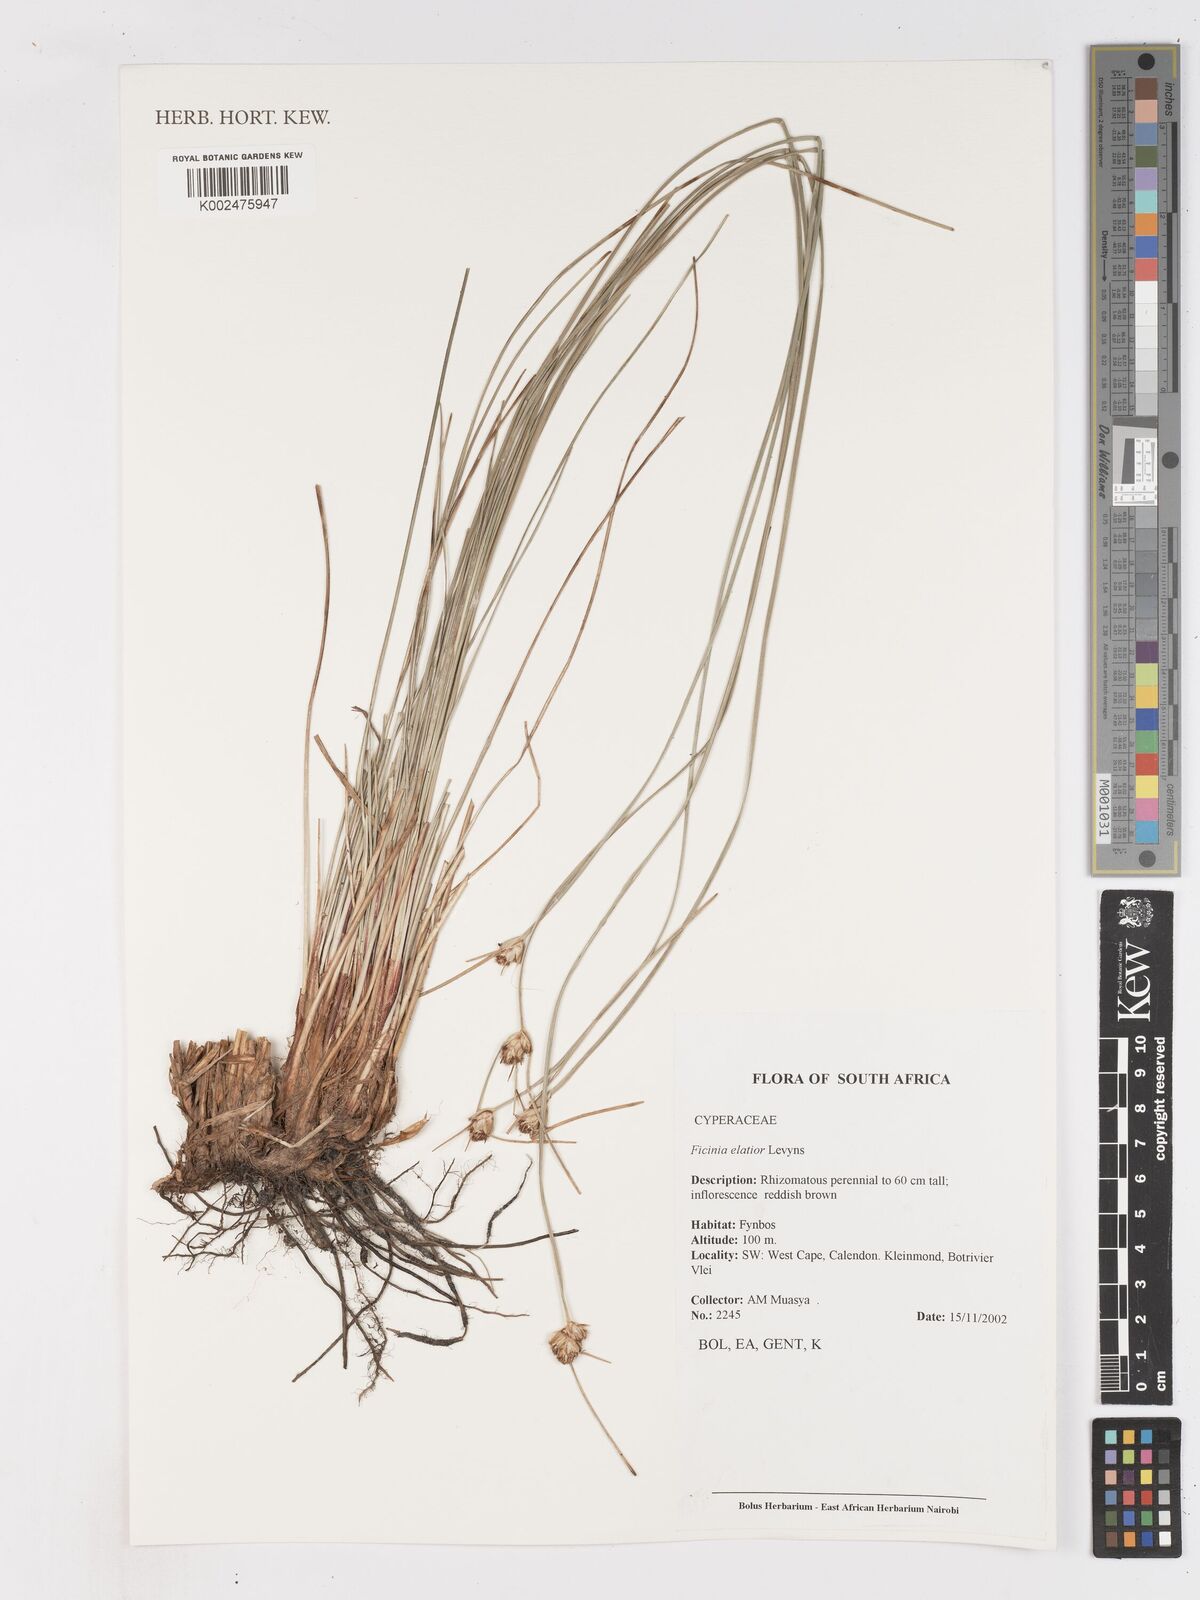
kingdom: Plantae
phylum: Tracheophyta
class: Liliopsida
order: Poales
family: Cyperaceae
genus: Ficinia
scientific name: Ficinia elatior
